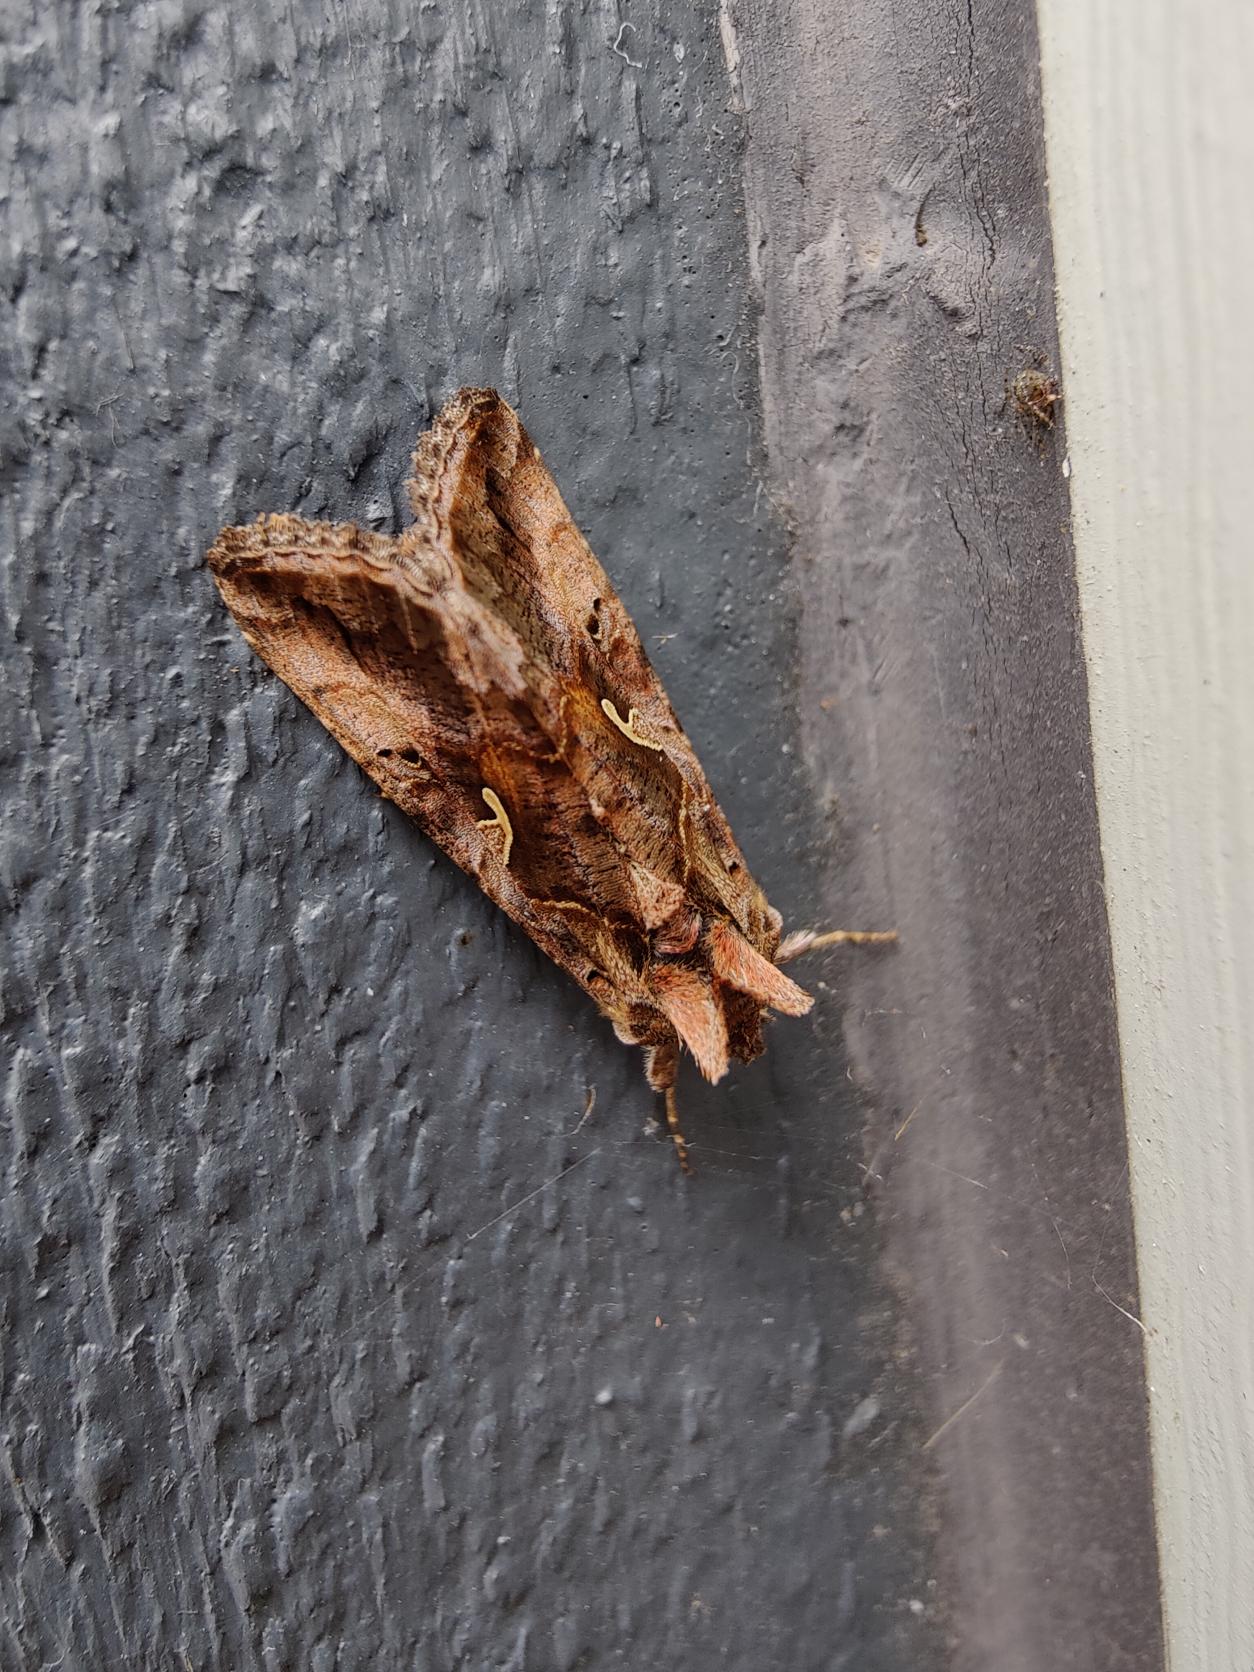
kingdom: Animalia
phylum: Arthropoda
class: Insecta
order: Lepidoptera
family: Noctuidae
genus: Autographa
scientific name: Autographa gamma
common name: Gammaugle
